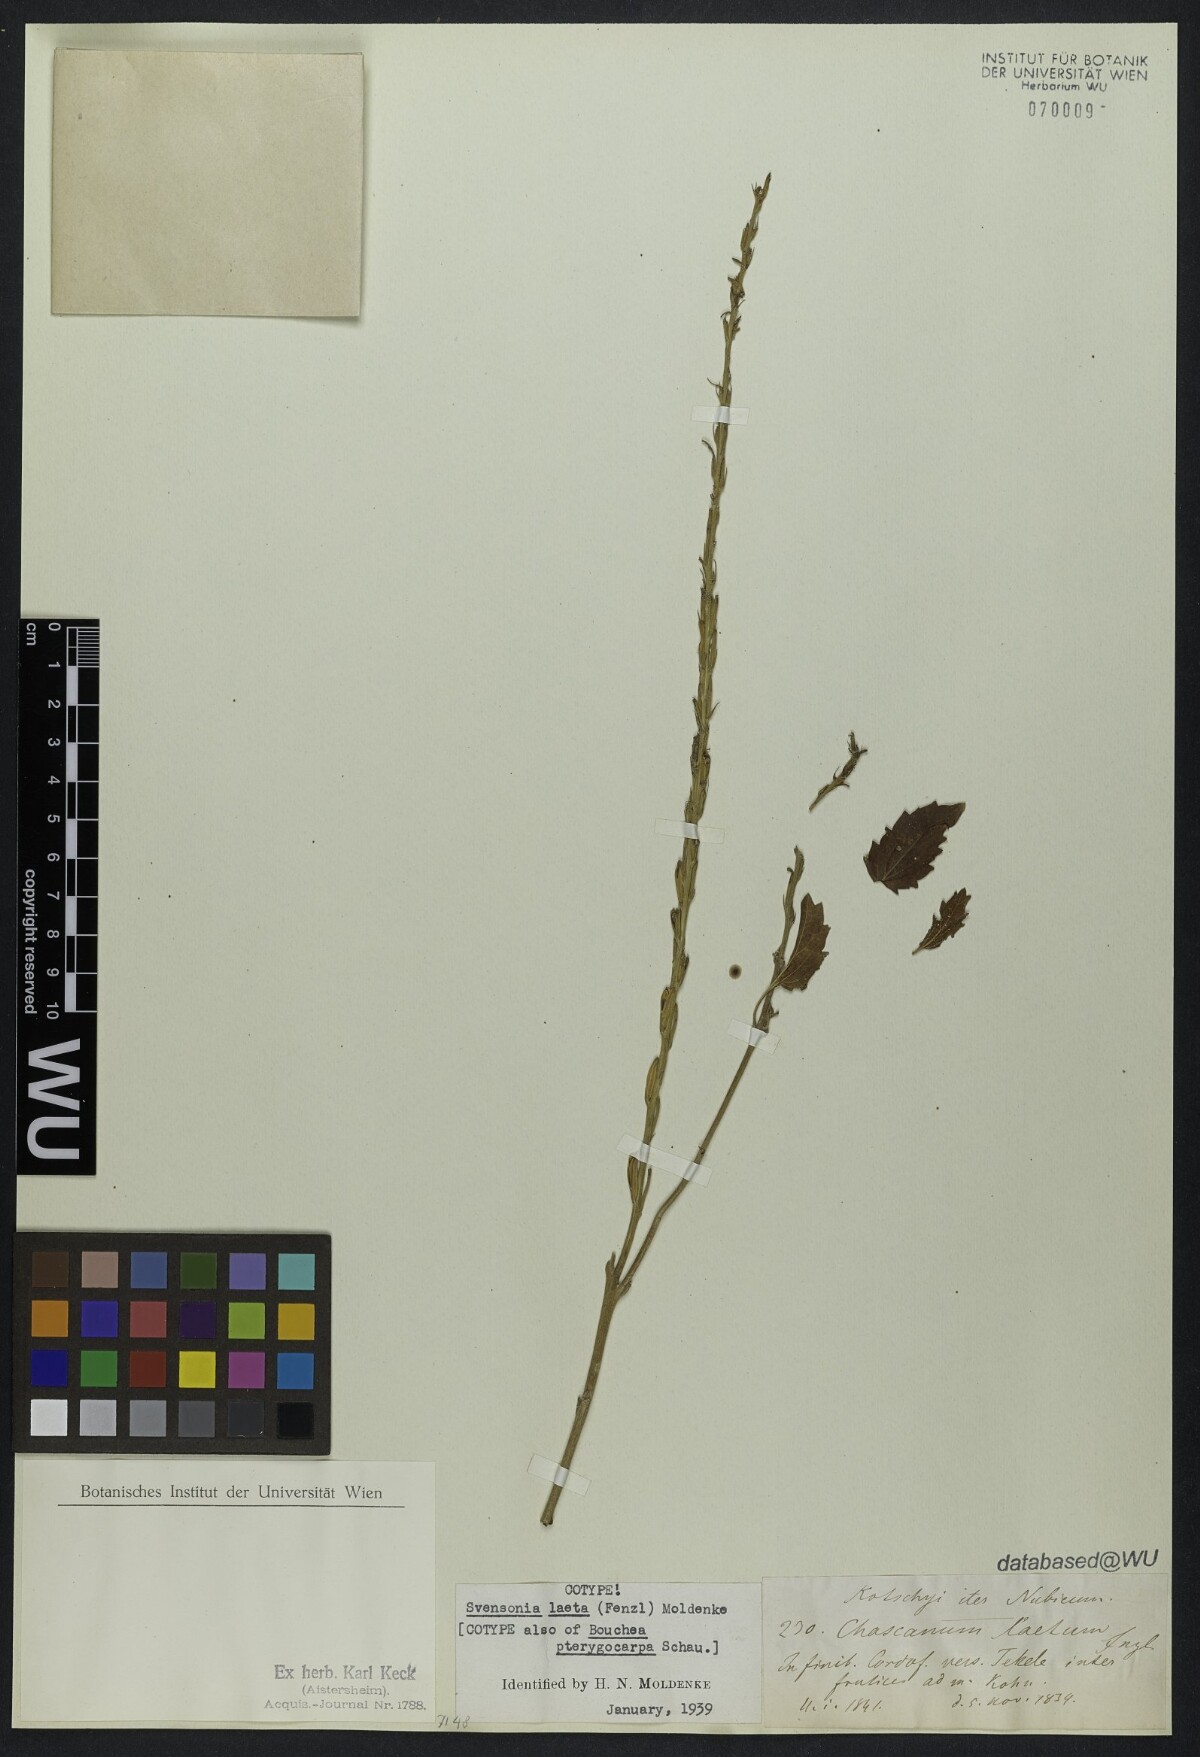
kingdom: Plantae
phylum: Tracheophyta
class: Magnoliopsida
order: Lamiales
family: Verbenaceae
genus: Chascanum
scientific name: Chascanum laetum
